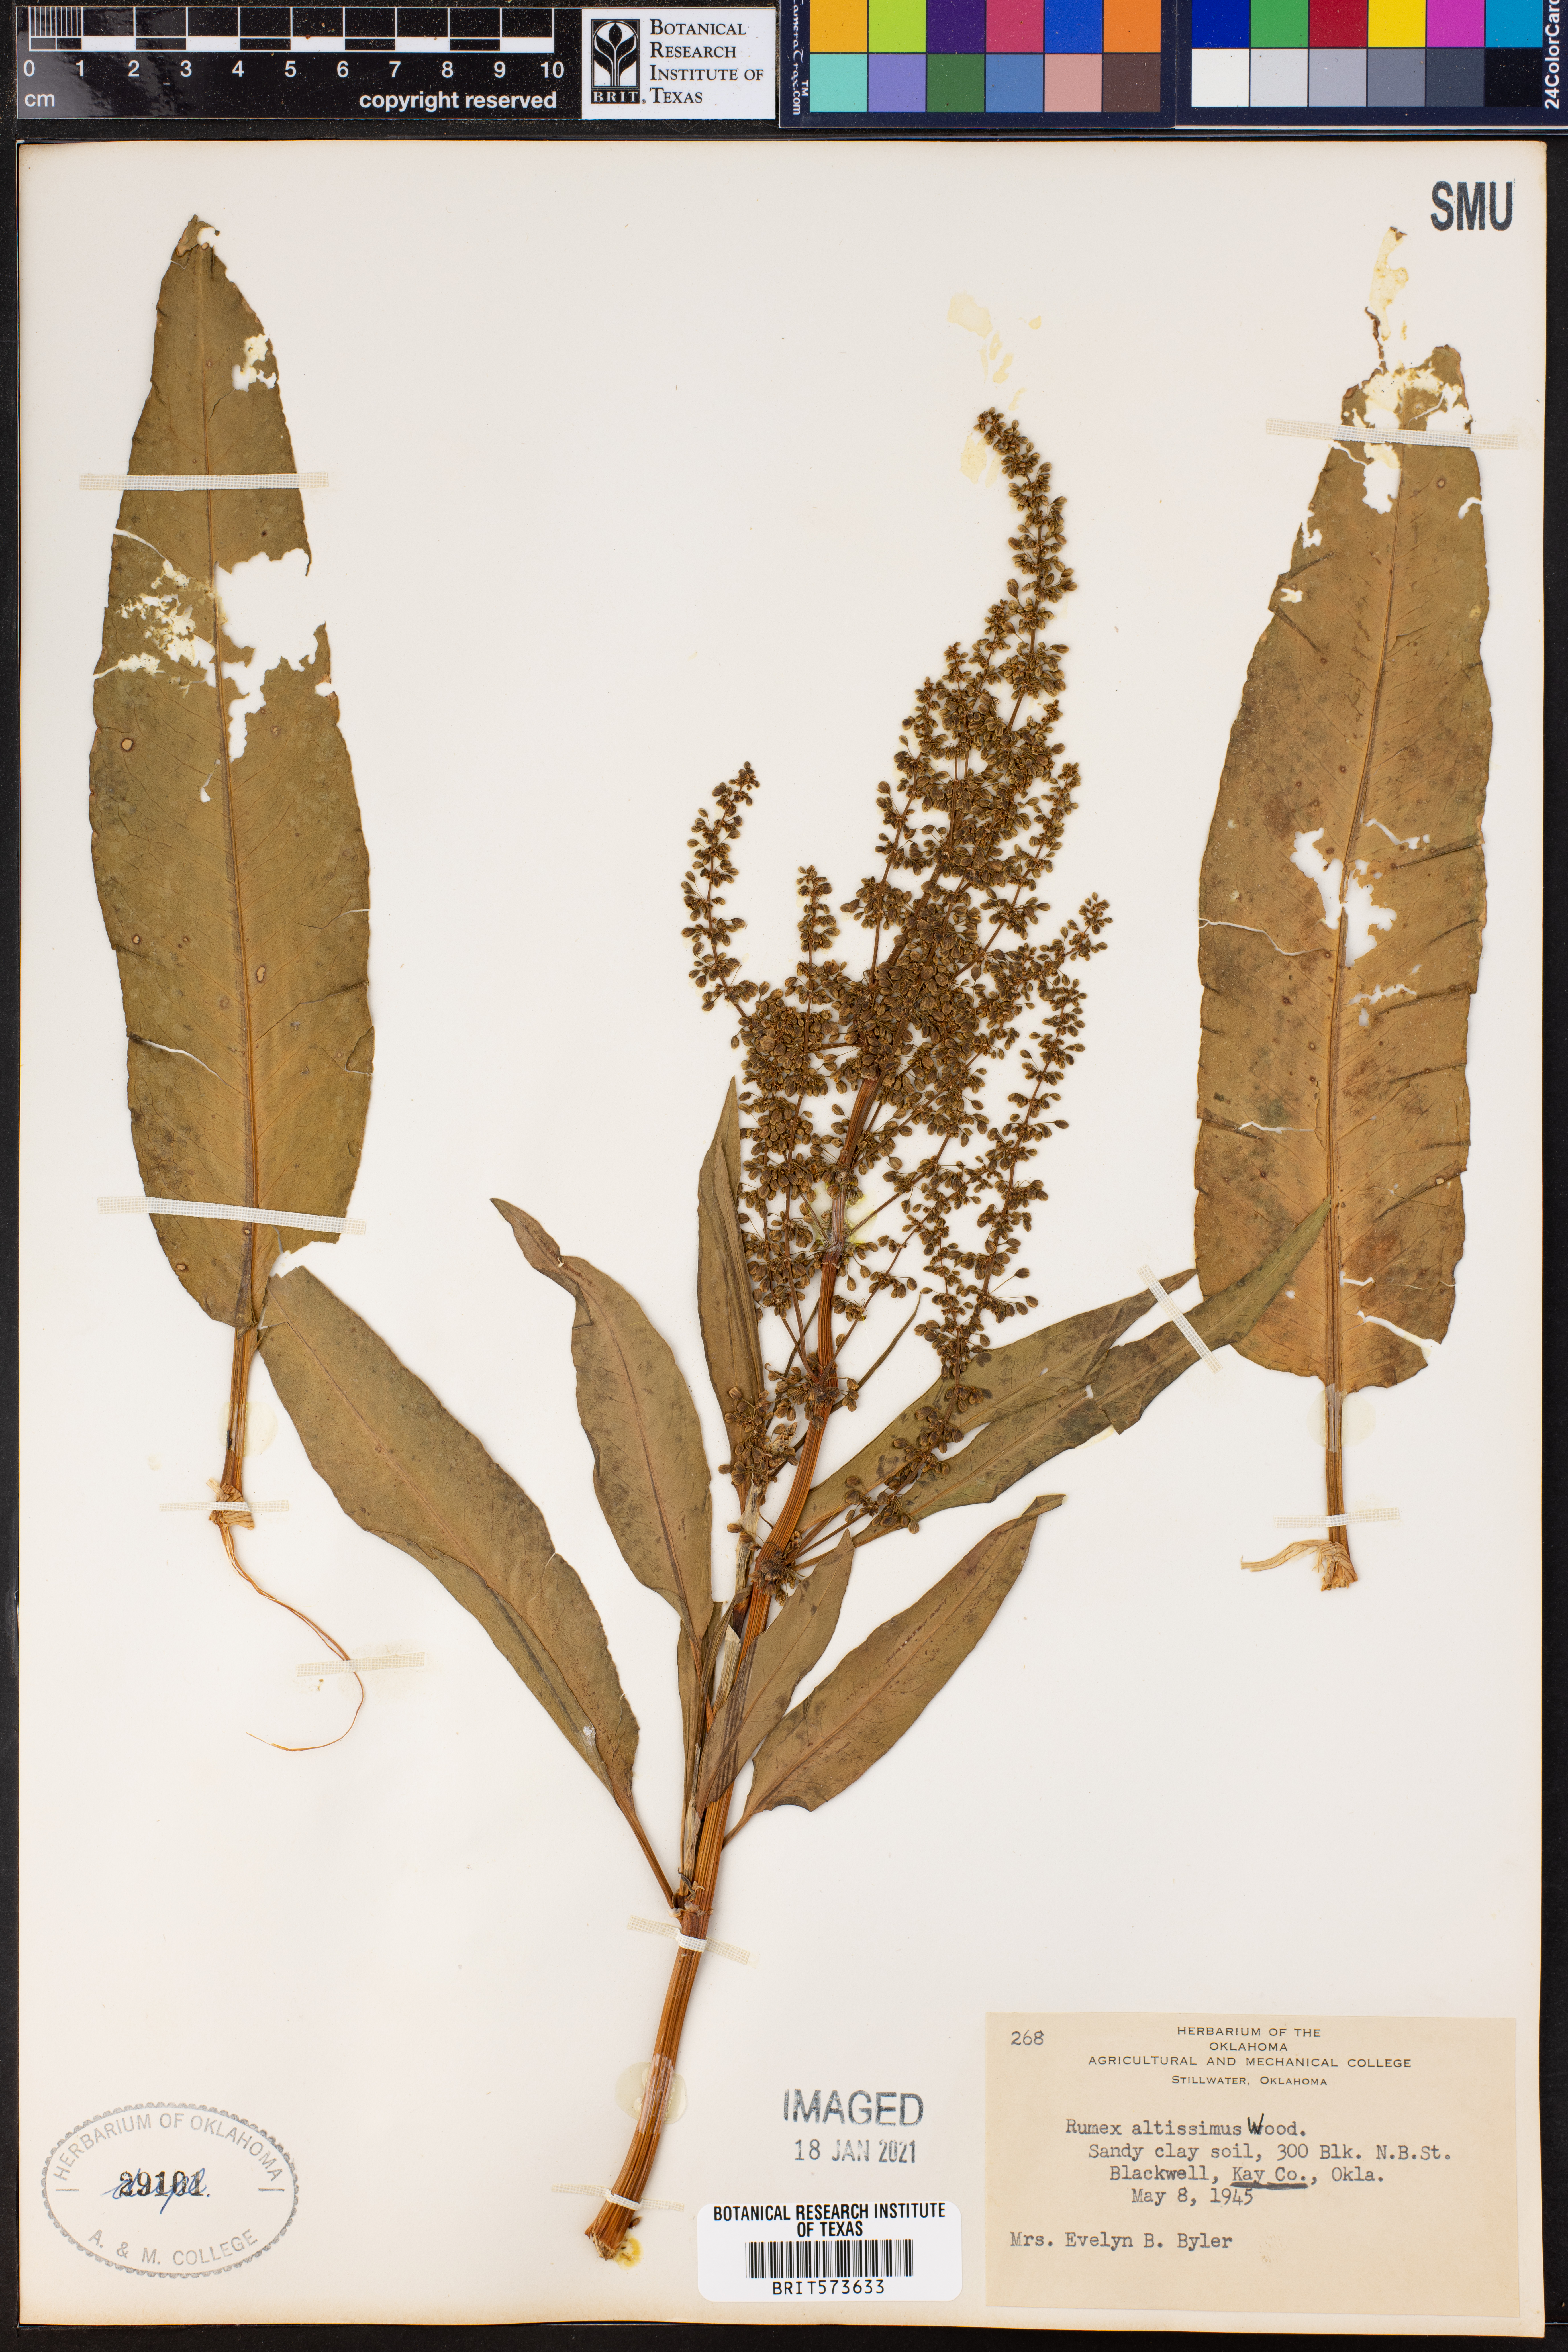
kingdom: Plantae
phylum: Tracheophyta
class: Magnoliopsida
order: Caryophyllales
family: Polygonaceae
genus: Rumex
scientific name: Rumex altissimus
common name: Smooth dock
